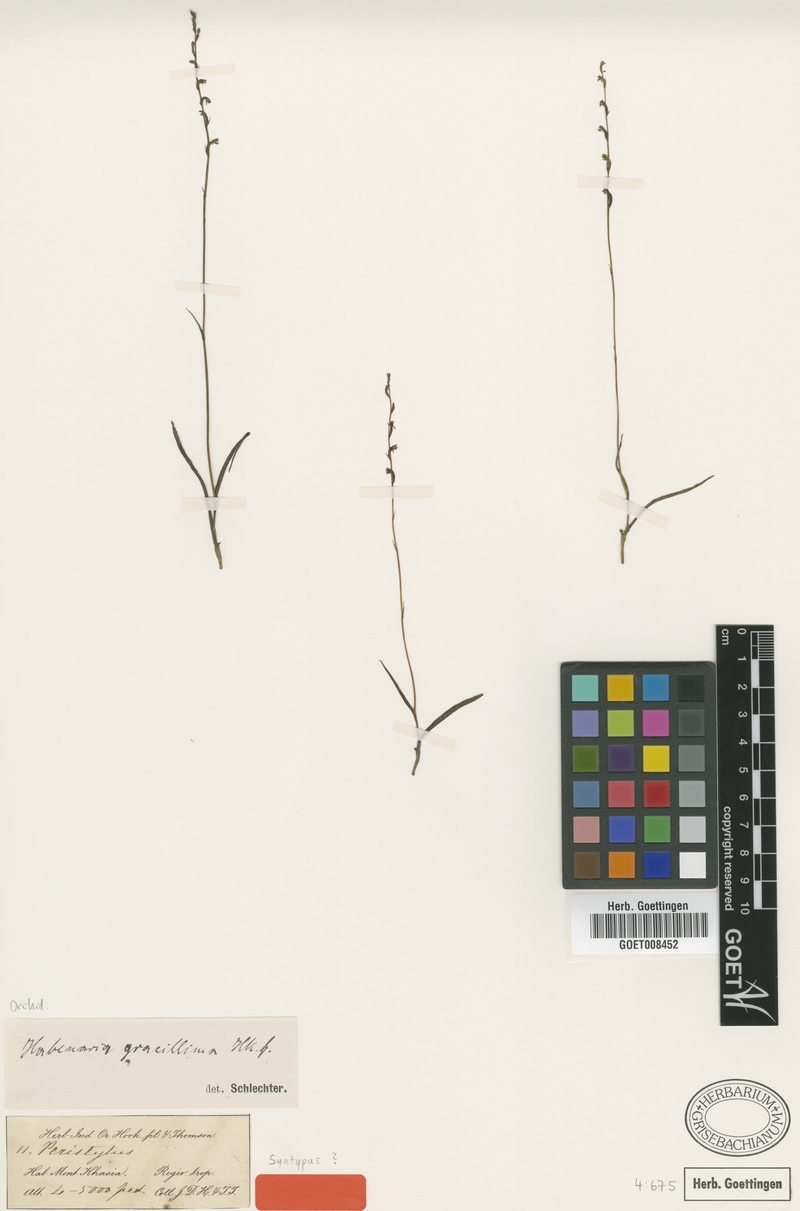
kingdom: Plantae
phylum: Tracheophyta
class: Liliopsida
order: Asparagales
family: Orchidaceae
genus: Herminium
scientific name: Herminium mannii
